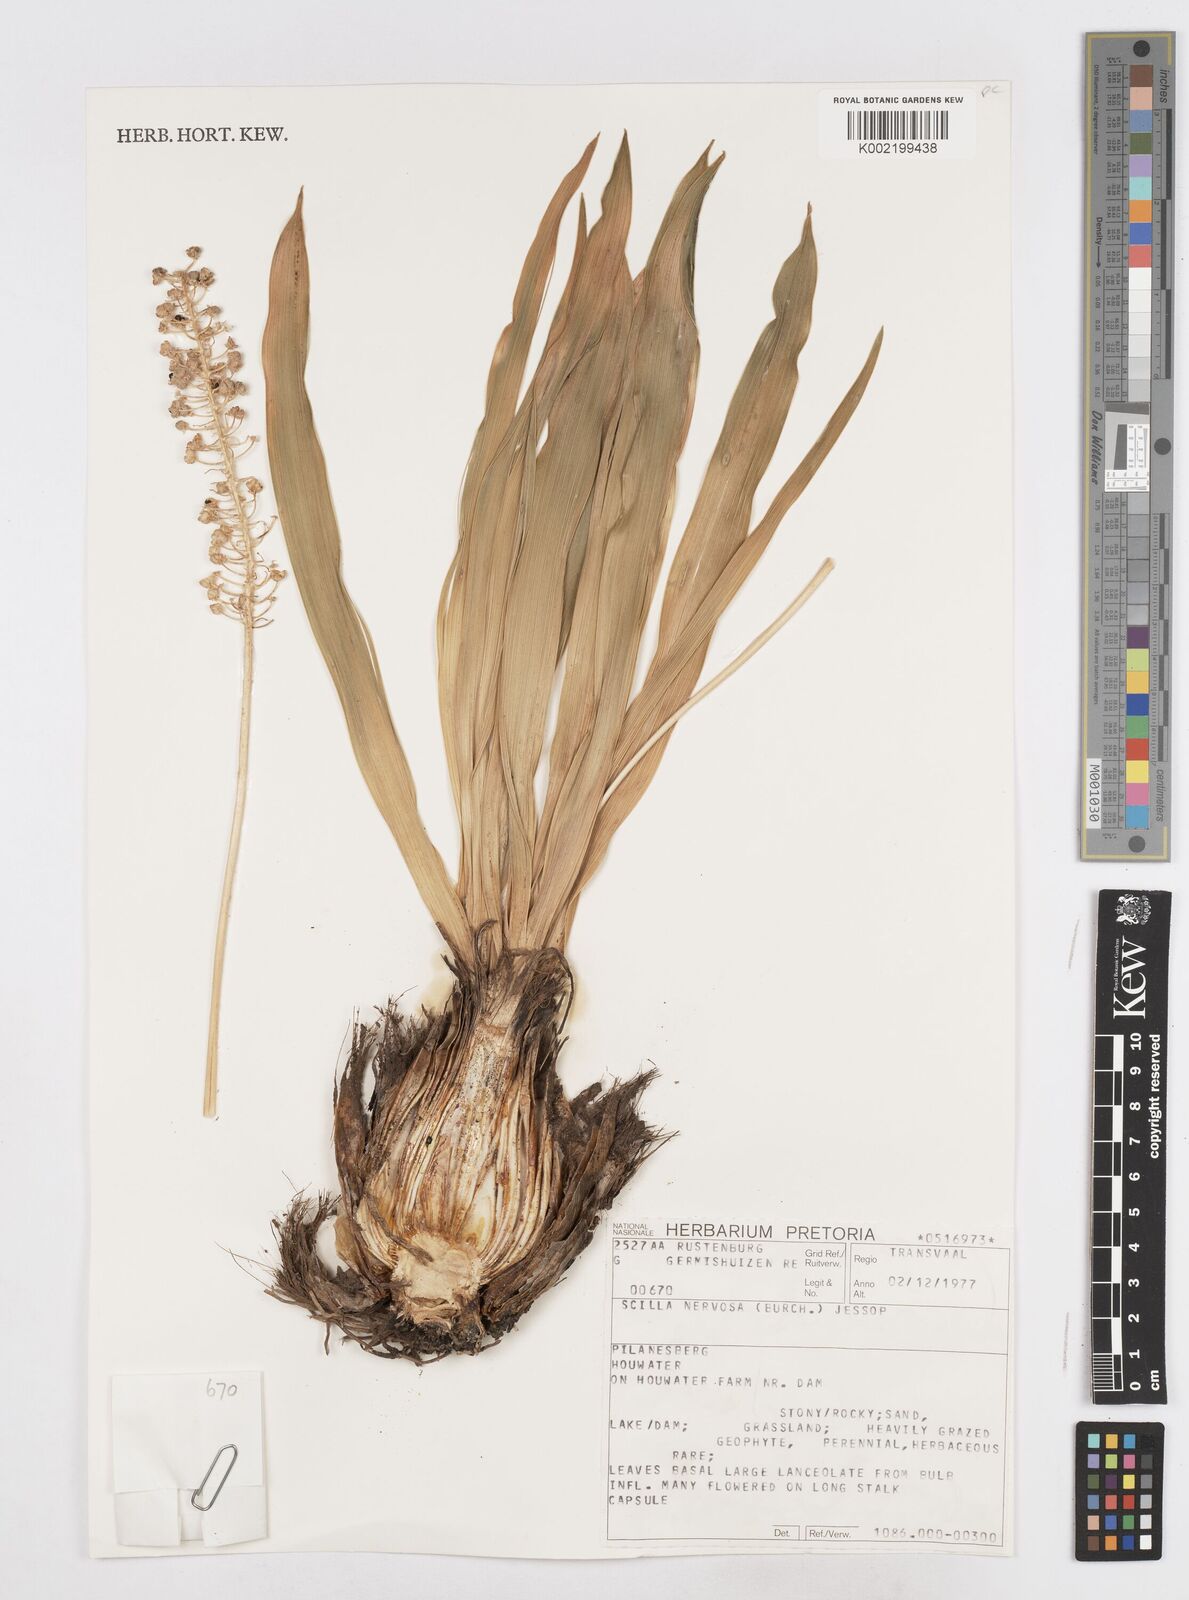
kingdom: Plantae
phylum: Tracheophyta
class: Liliopsida
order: Asparagales
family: Asparagaceae
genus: Schizocarphus
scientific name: Schizocarphus nervosus
